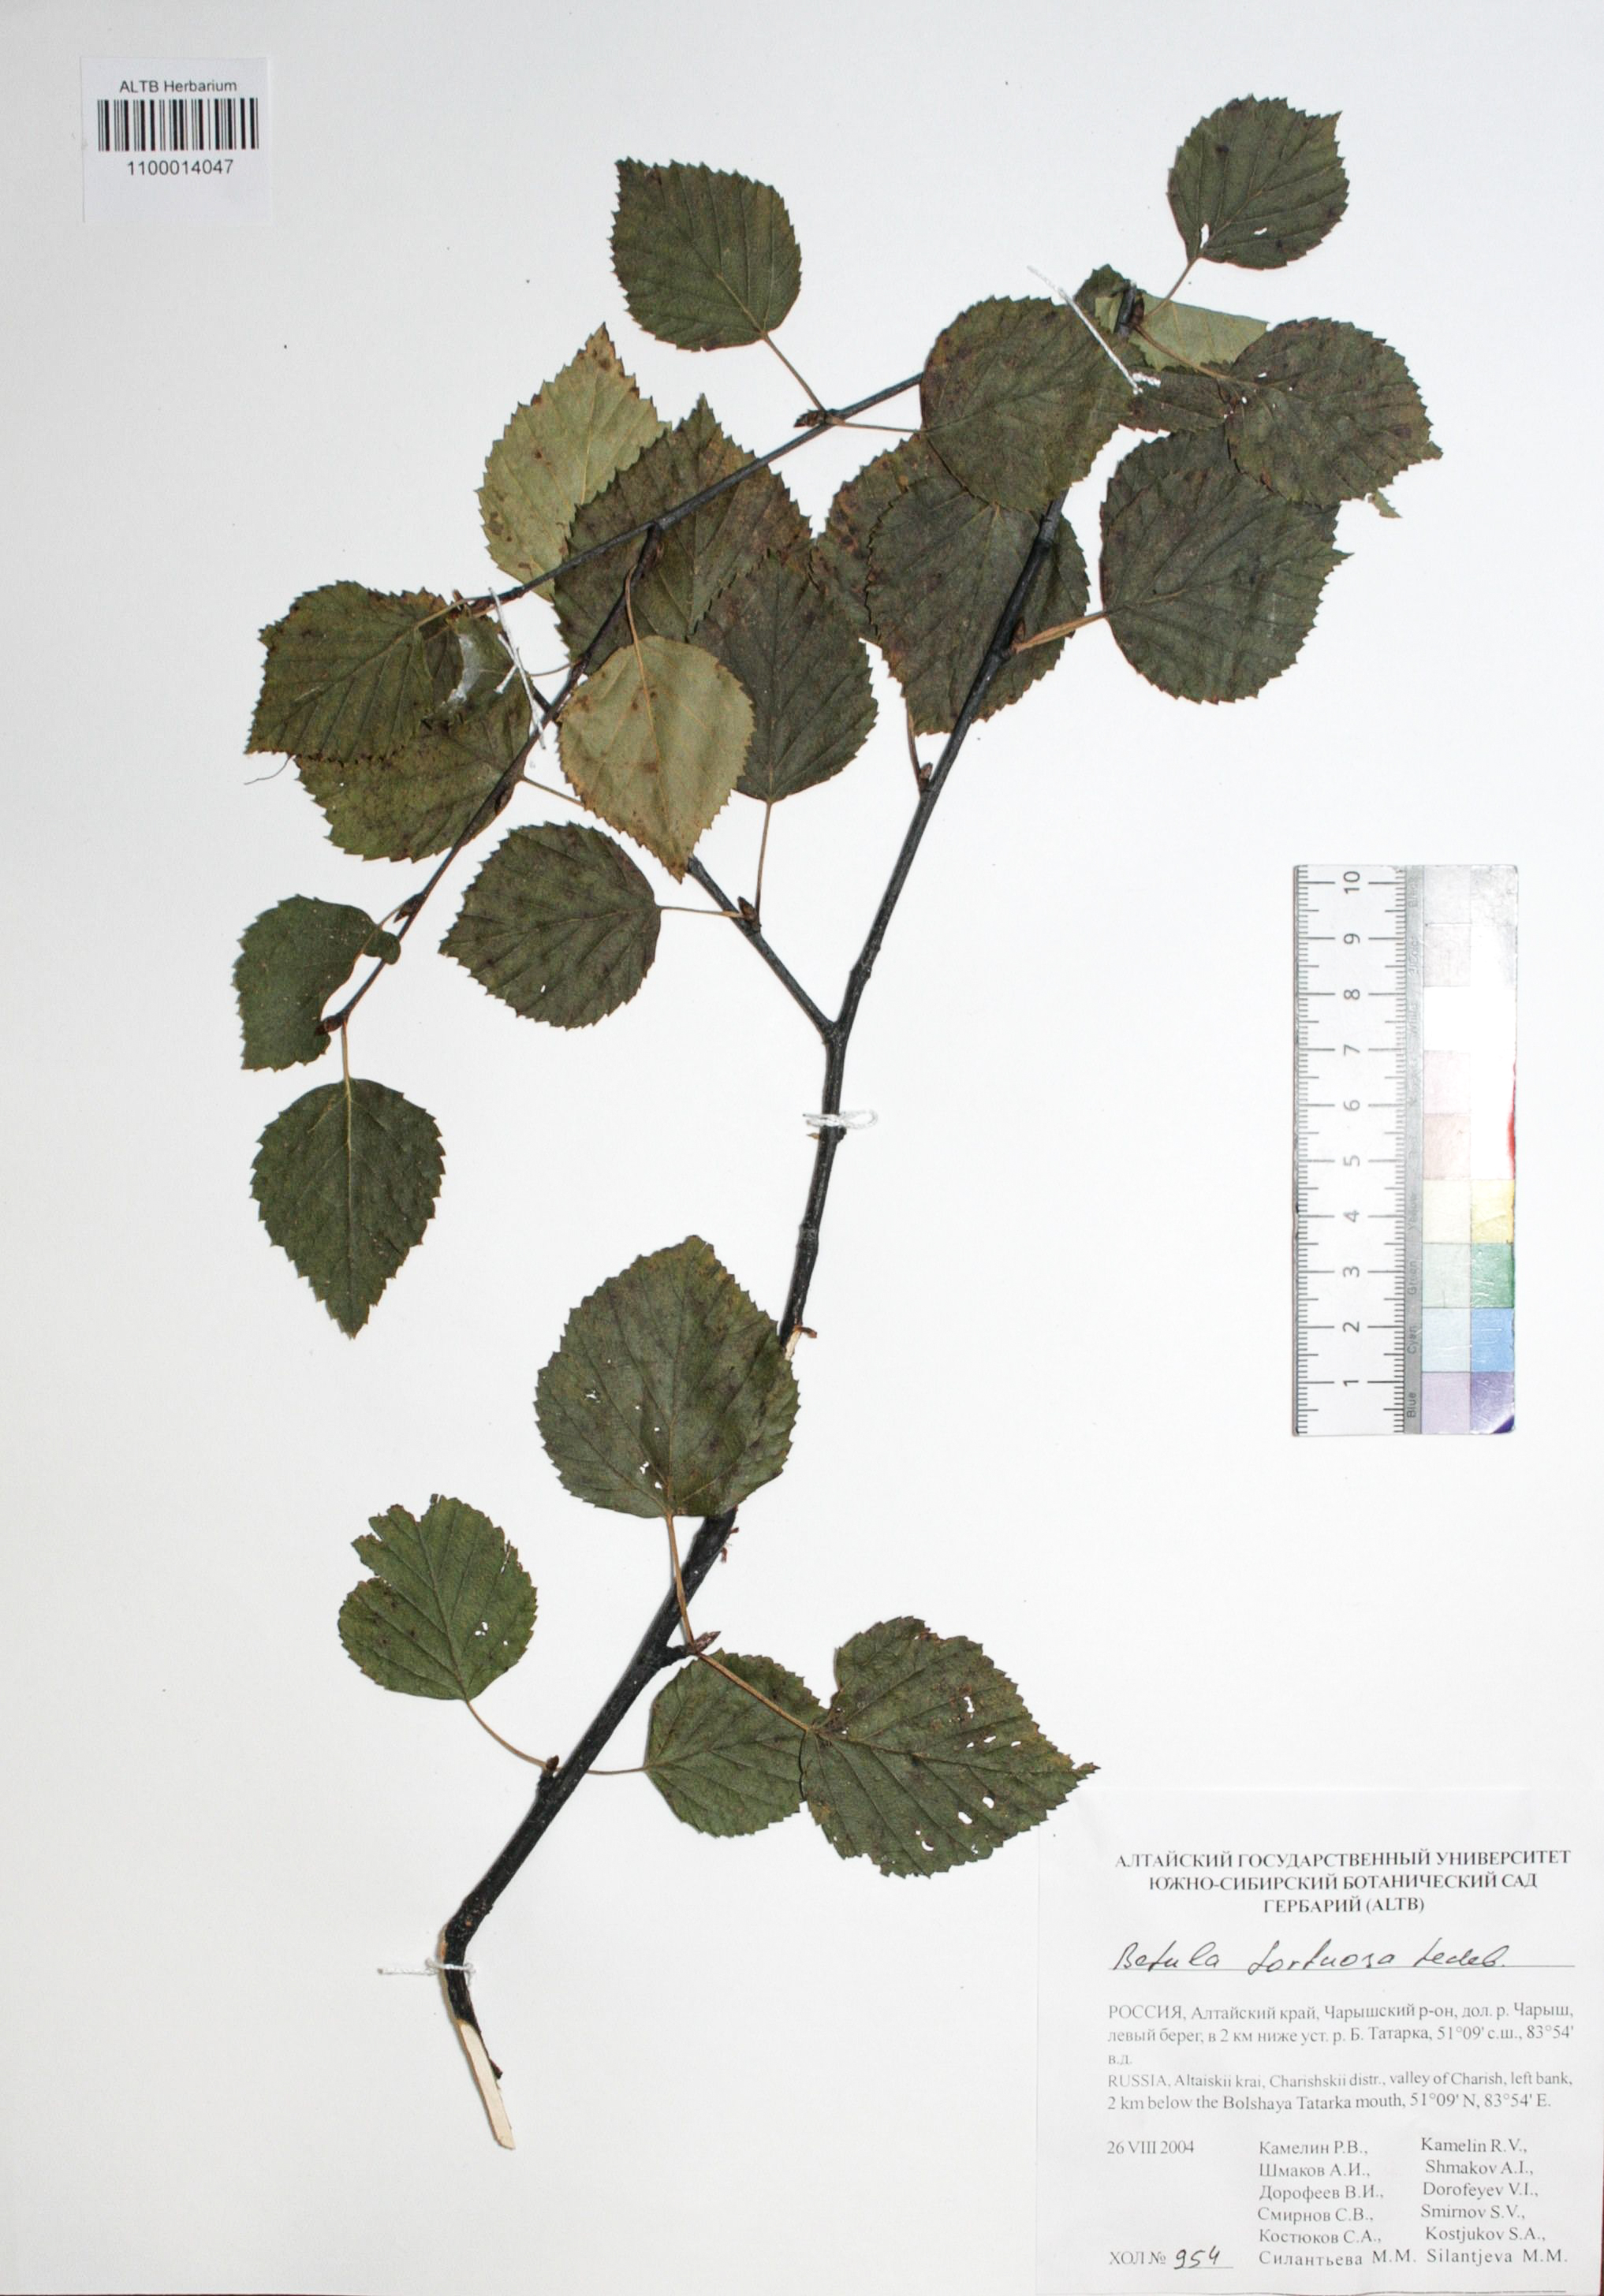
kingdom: Plantae
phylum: Tracheophyta
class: Magnoliopsida
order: Fagales
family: Betulaceae
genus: Betula
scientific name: Betula pubescens
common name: Downy birch
